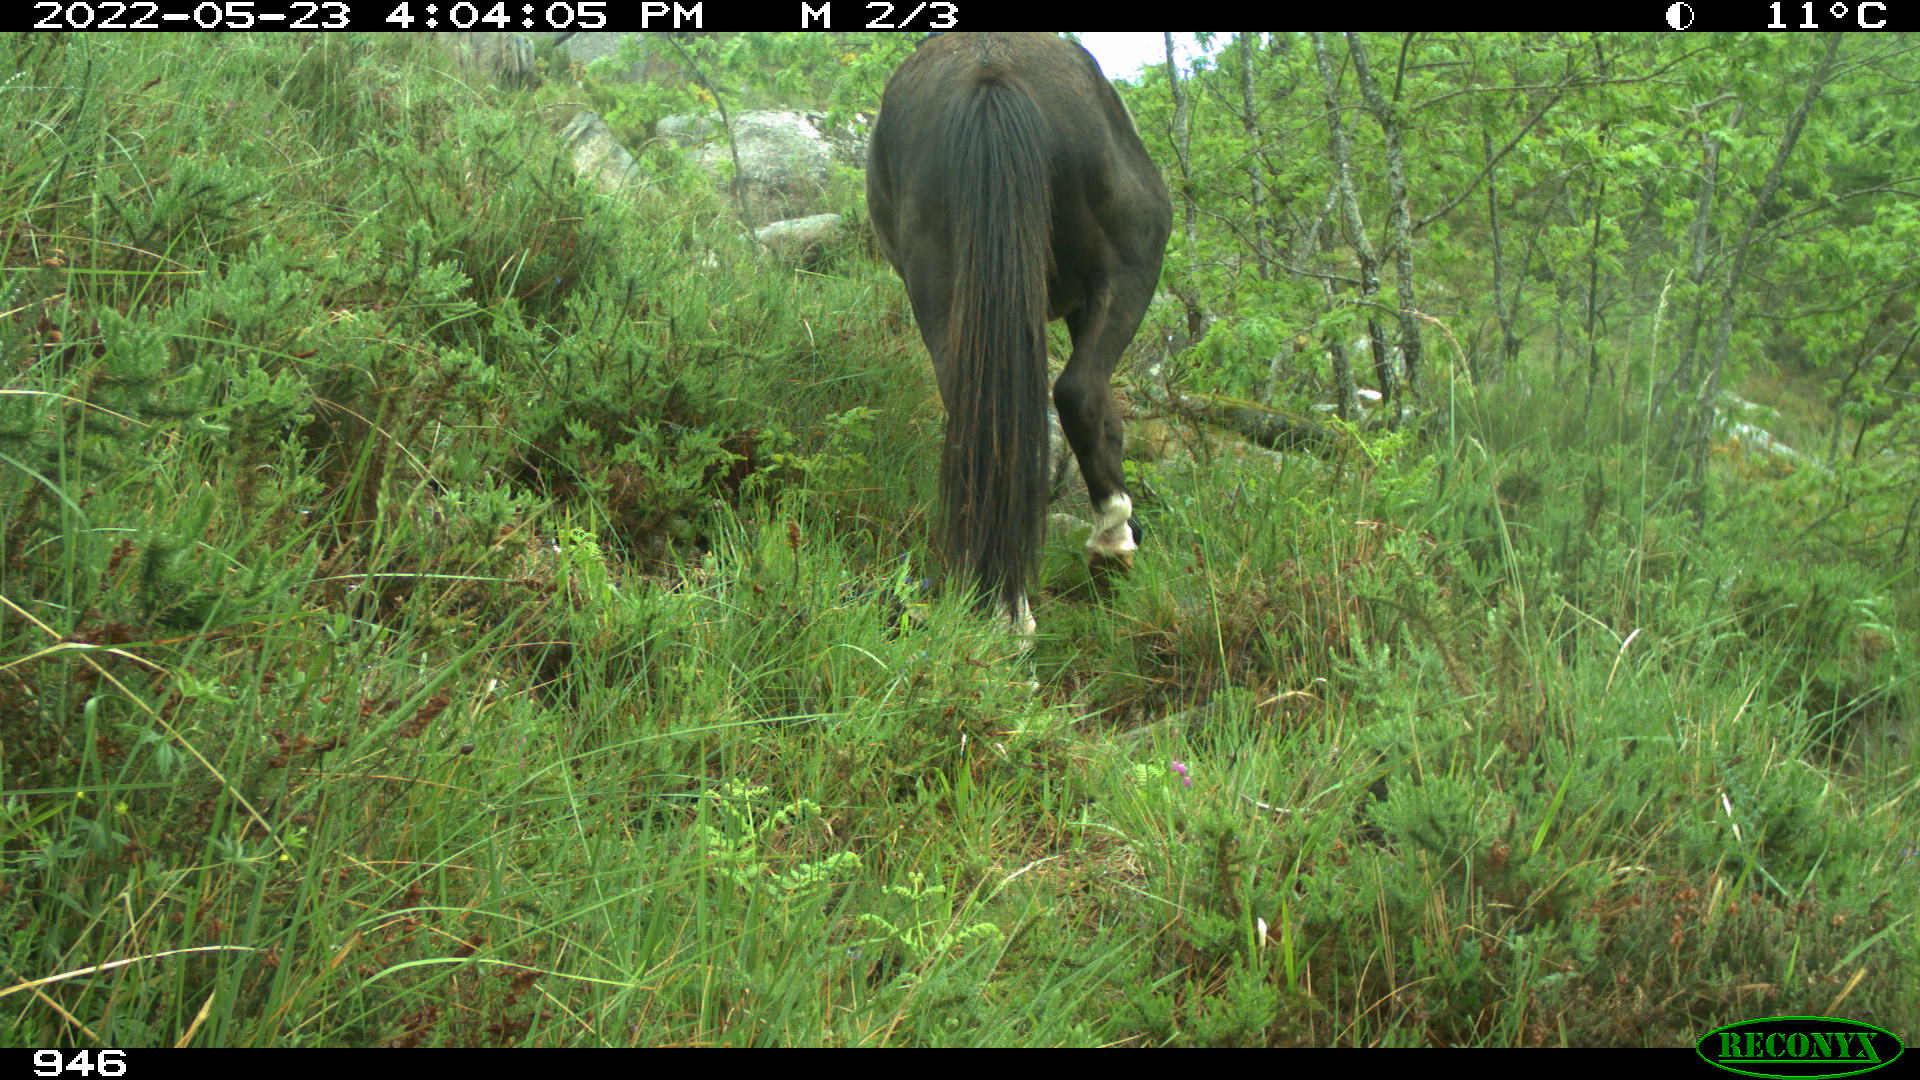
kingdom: Animalia
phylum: Chordata
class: Mammalia
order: Perissodactyla
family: Equidae
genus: Equus
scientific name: Equus caballus
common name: Horse
